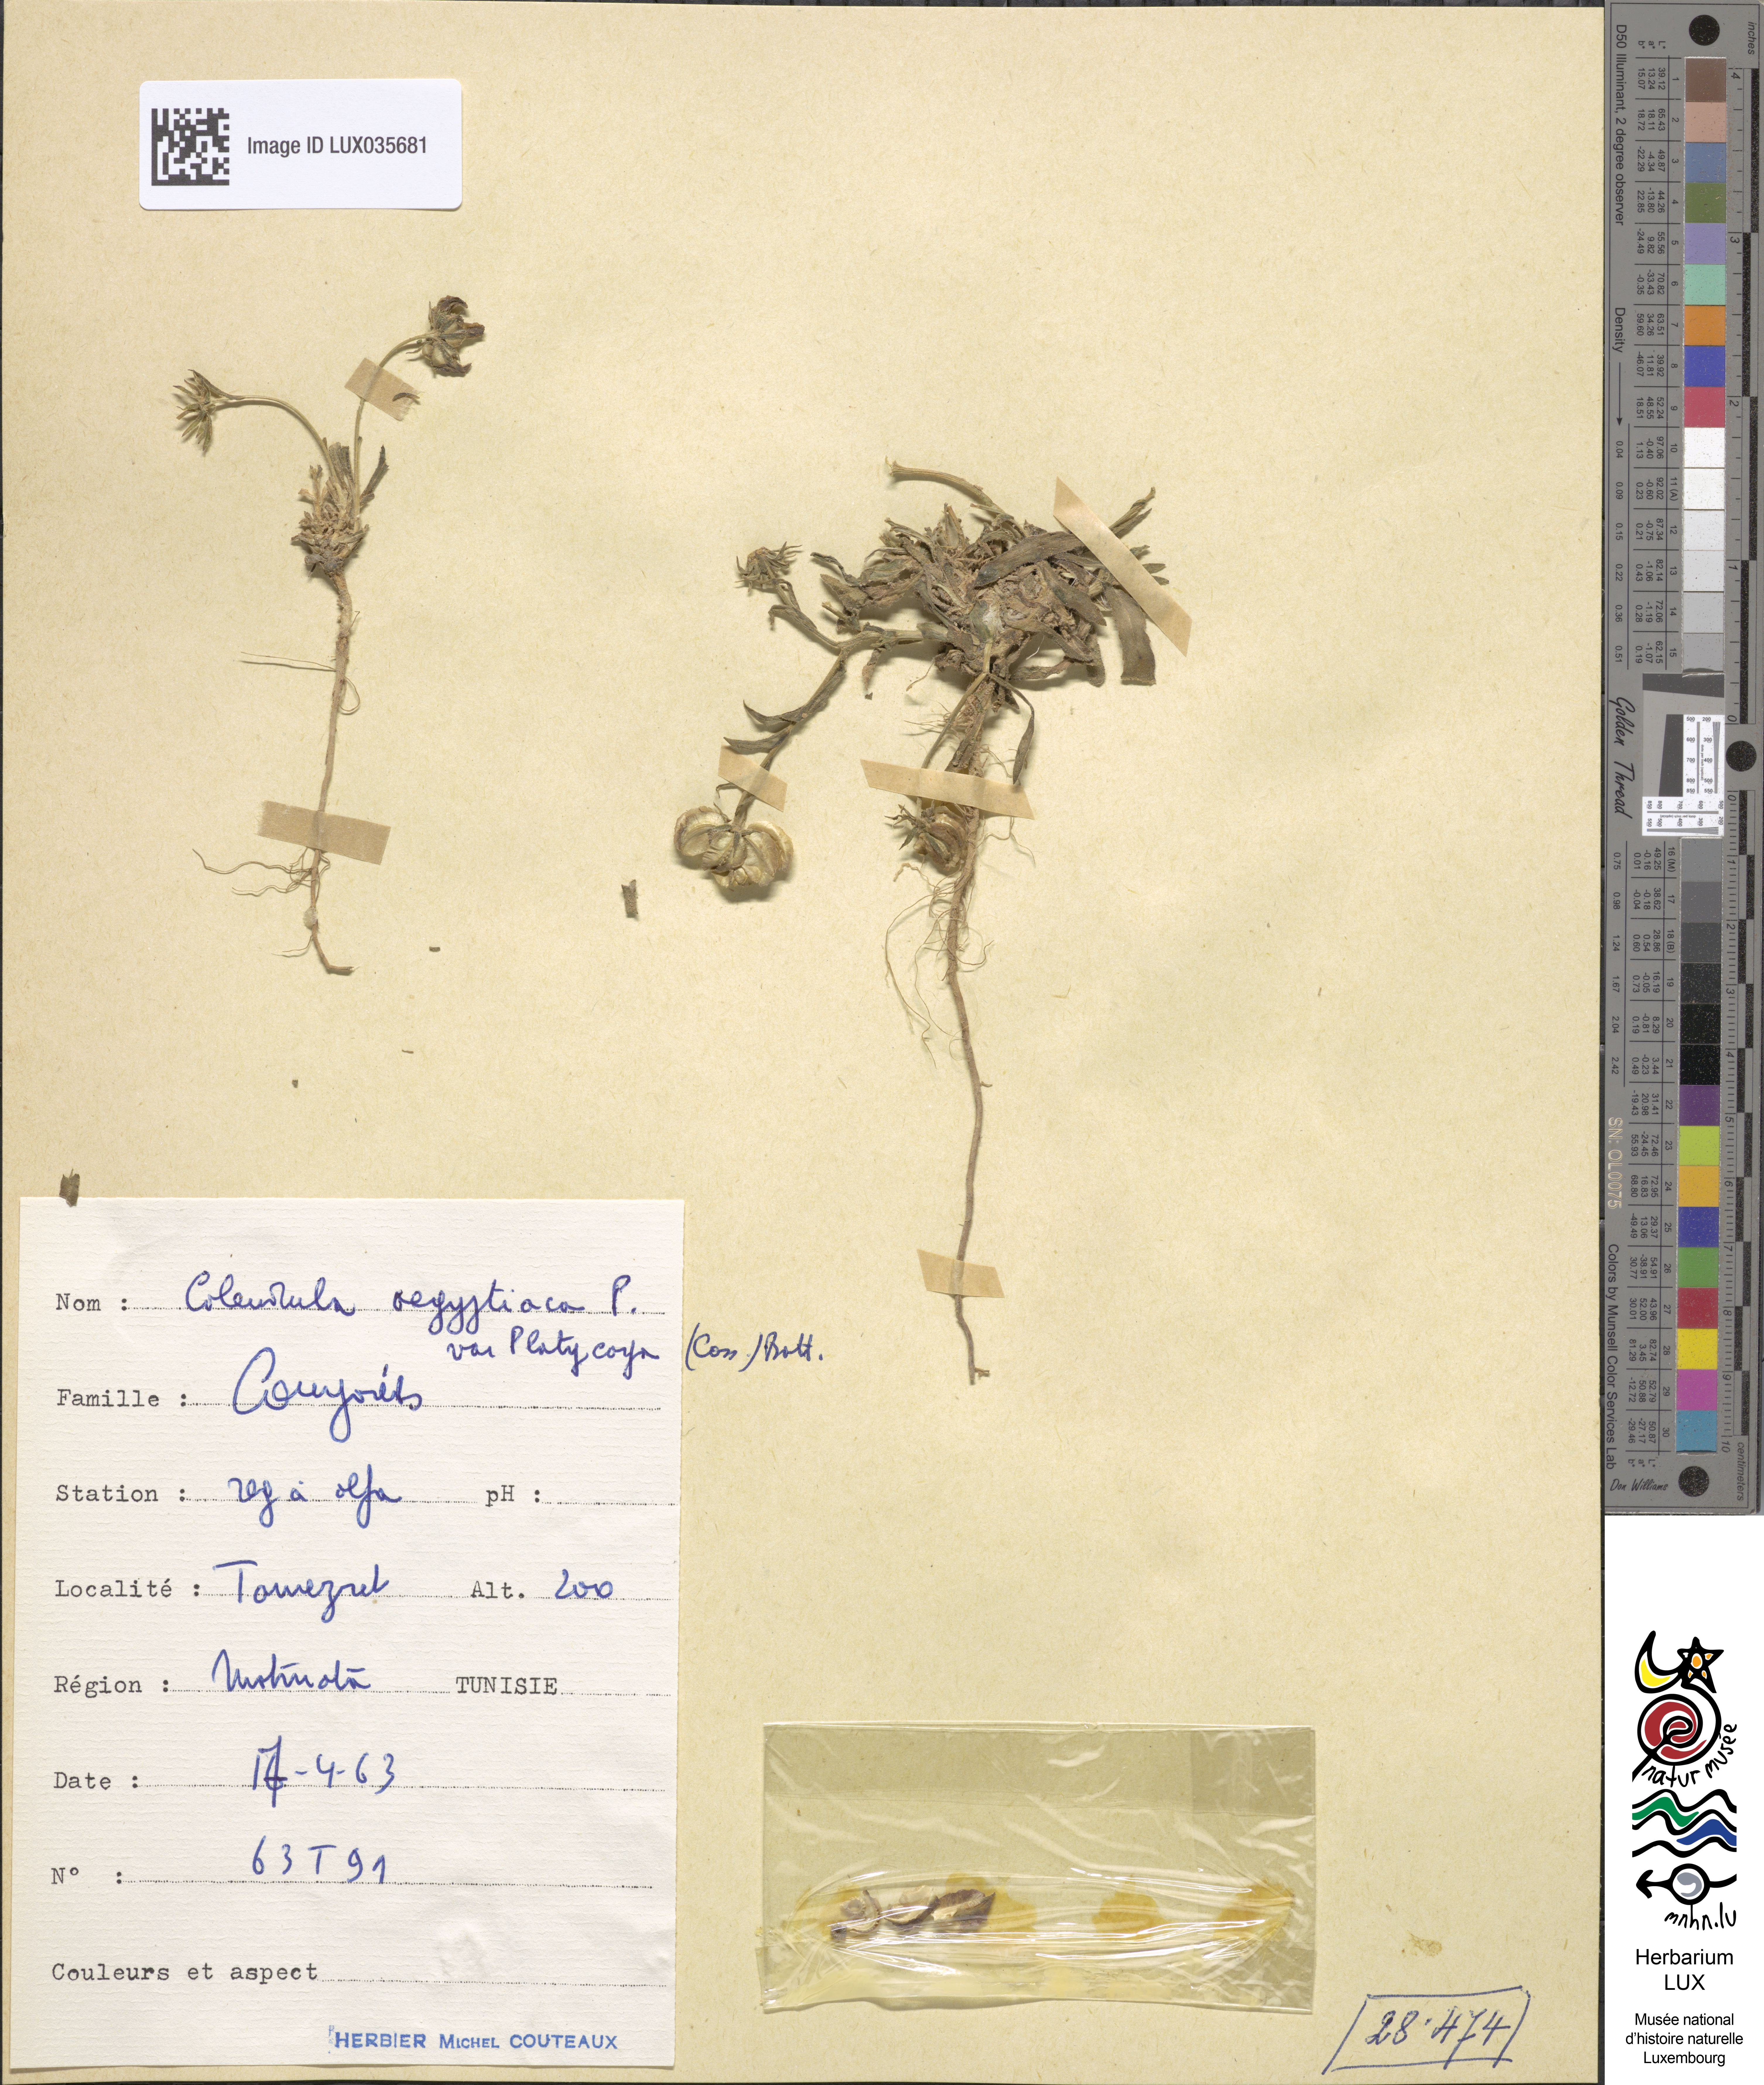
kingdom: Plantae
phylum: Tracheophyta
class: Magnoliopsida
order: Asterales
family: Asteraceae
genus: Calendula
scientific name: Calendula tripterocarpa
